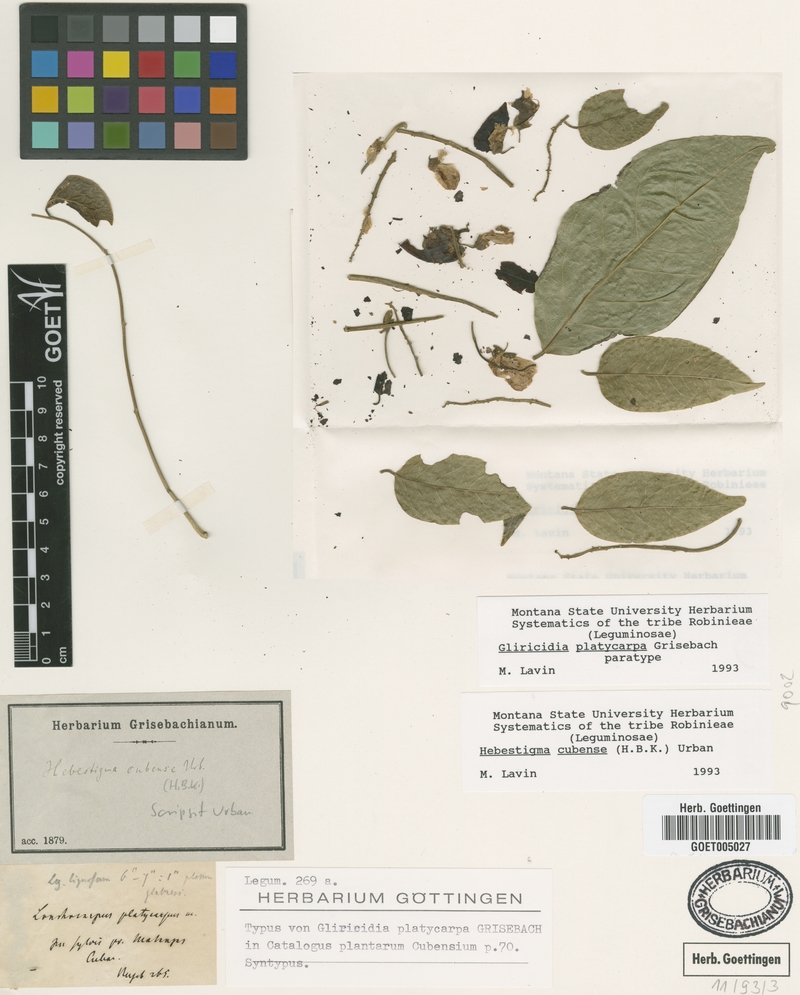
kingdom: Plantae
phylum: Tracheophyta
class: Magnoliopsida
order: Fabales
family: Fabaceae
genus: Hebestigma
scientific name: Hebestigma cubense
